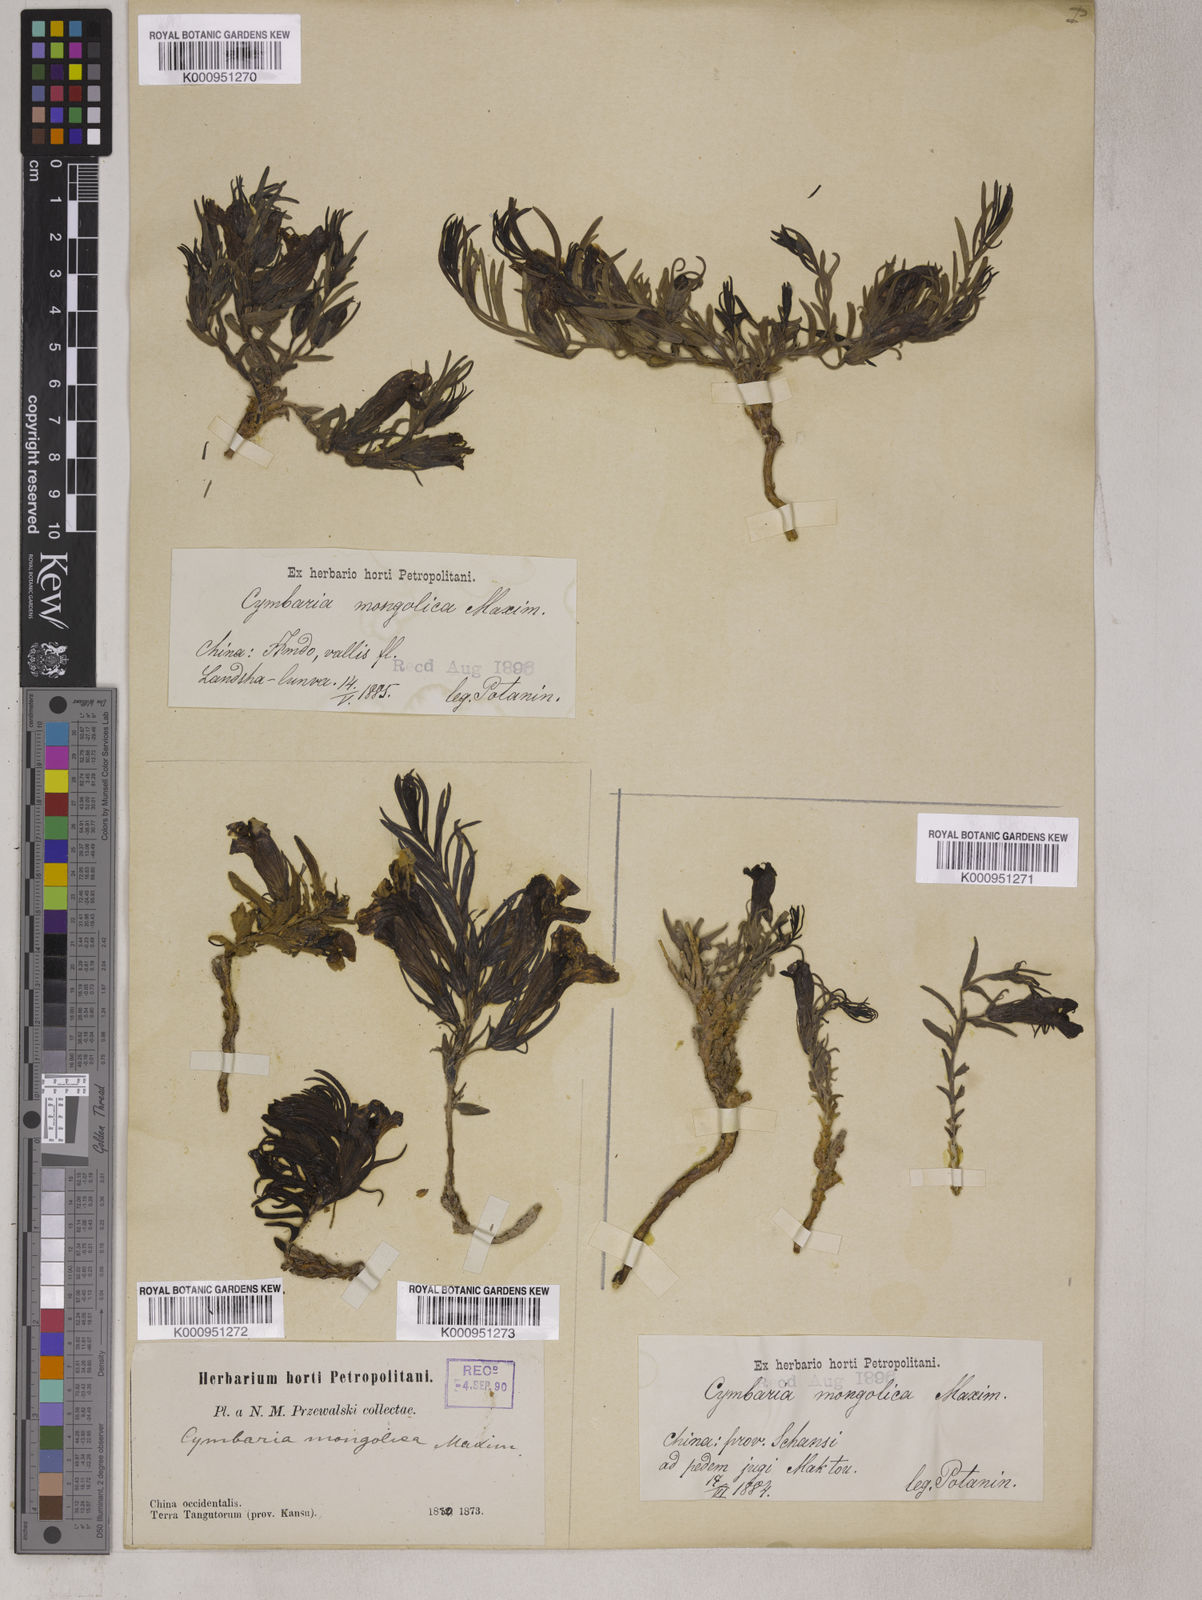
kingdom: Plantae
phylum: Tracheophyta
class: Magnoliopsida
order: Lamiales
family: Orobanchaceae
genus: Cymbaria
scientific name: Cymbaria mongolica
